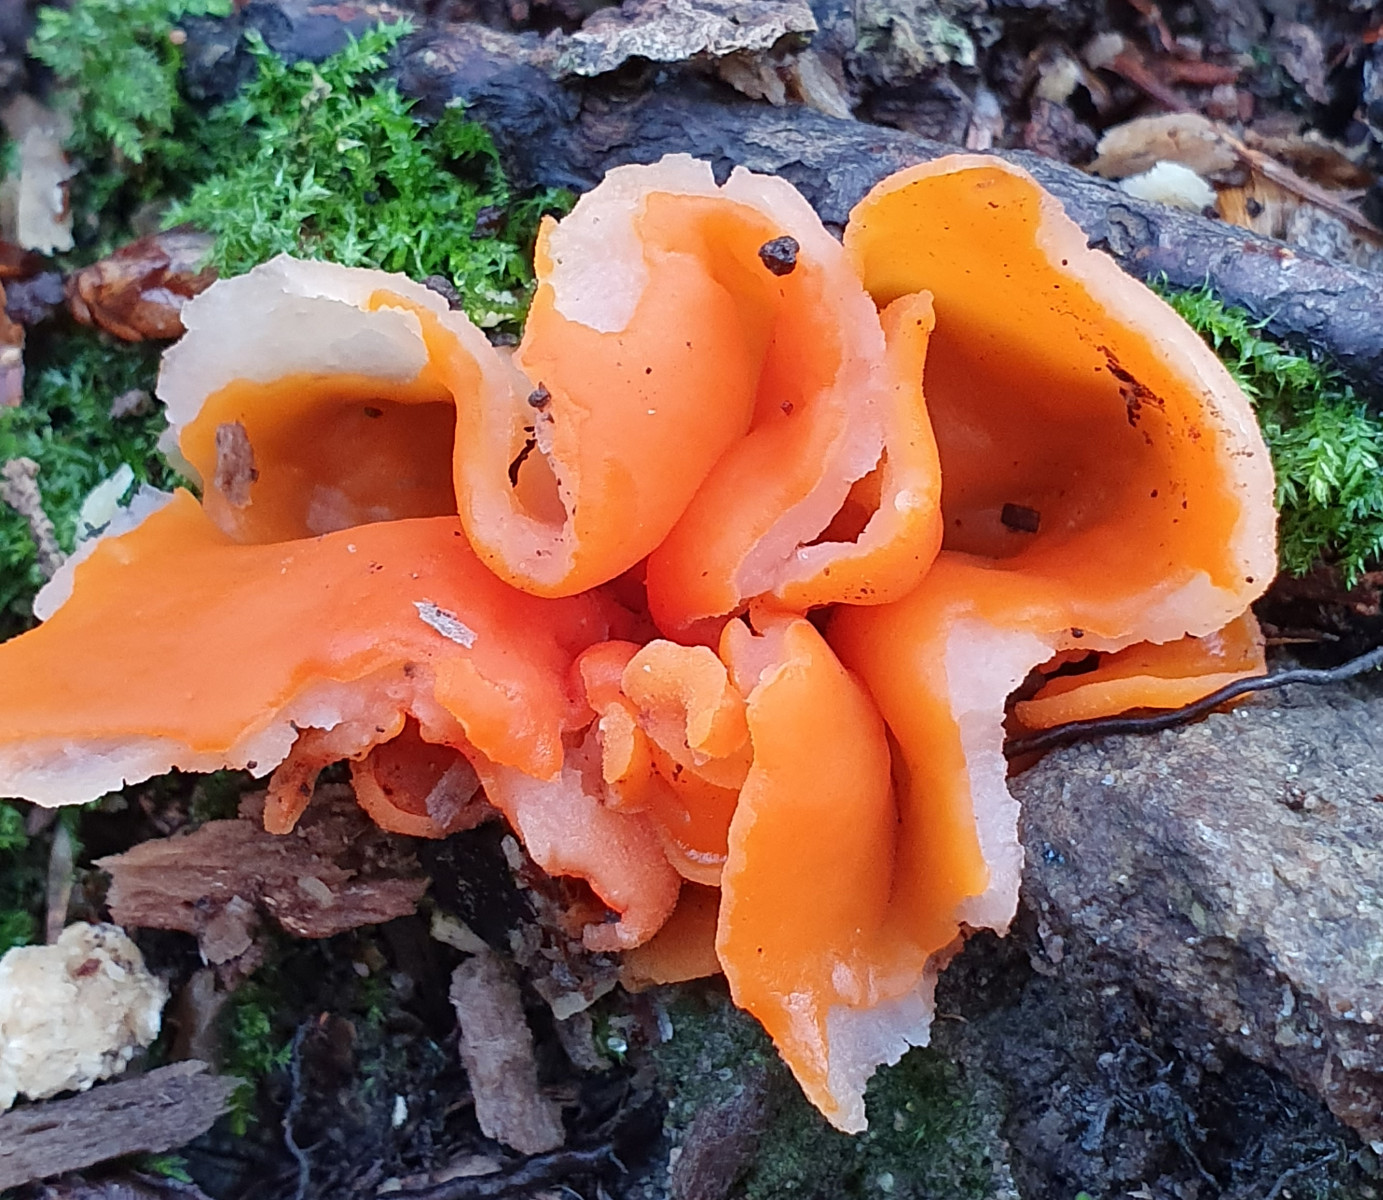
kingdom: Fungi
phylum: Ascomycota
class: Pezizomycetes
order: Pezizales
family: Pyronemataceae
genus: Aleuria
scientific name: Aleuria aurantia
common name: almindelig orangebæger
